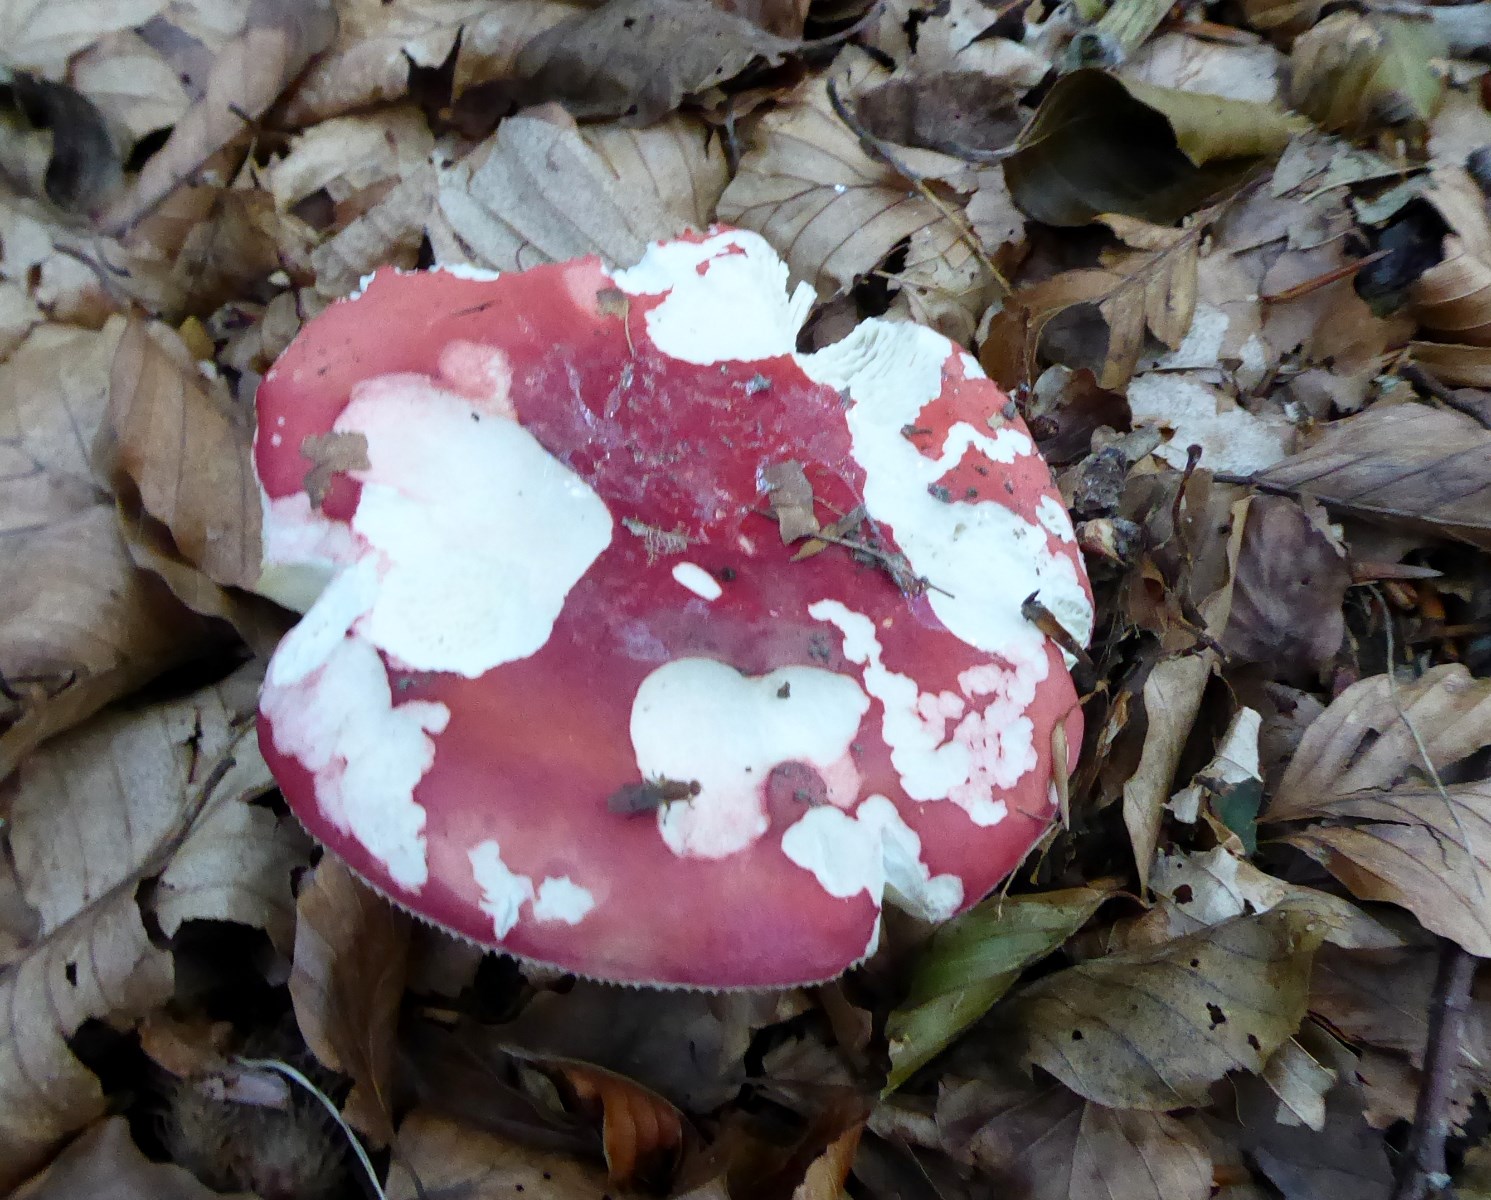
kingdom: Fungi
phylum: Basidiomycota
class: Agaricomycetes
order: Russulales
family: Russulaceae
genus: Russula
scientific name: Russula rosea
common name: fastkødet skørhat
